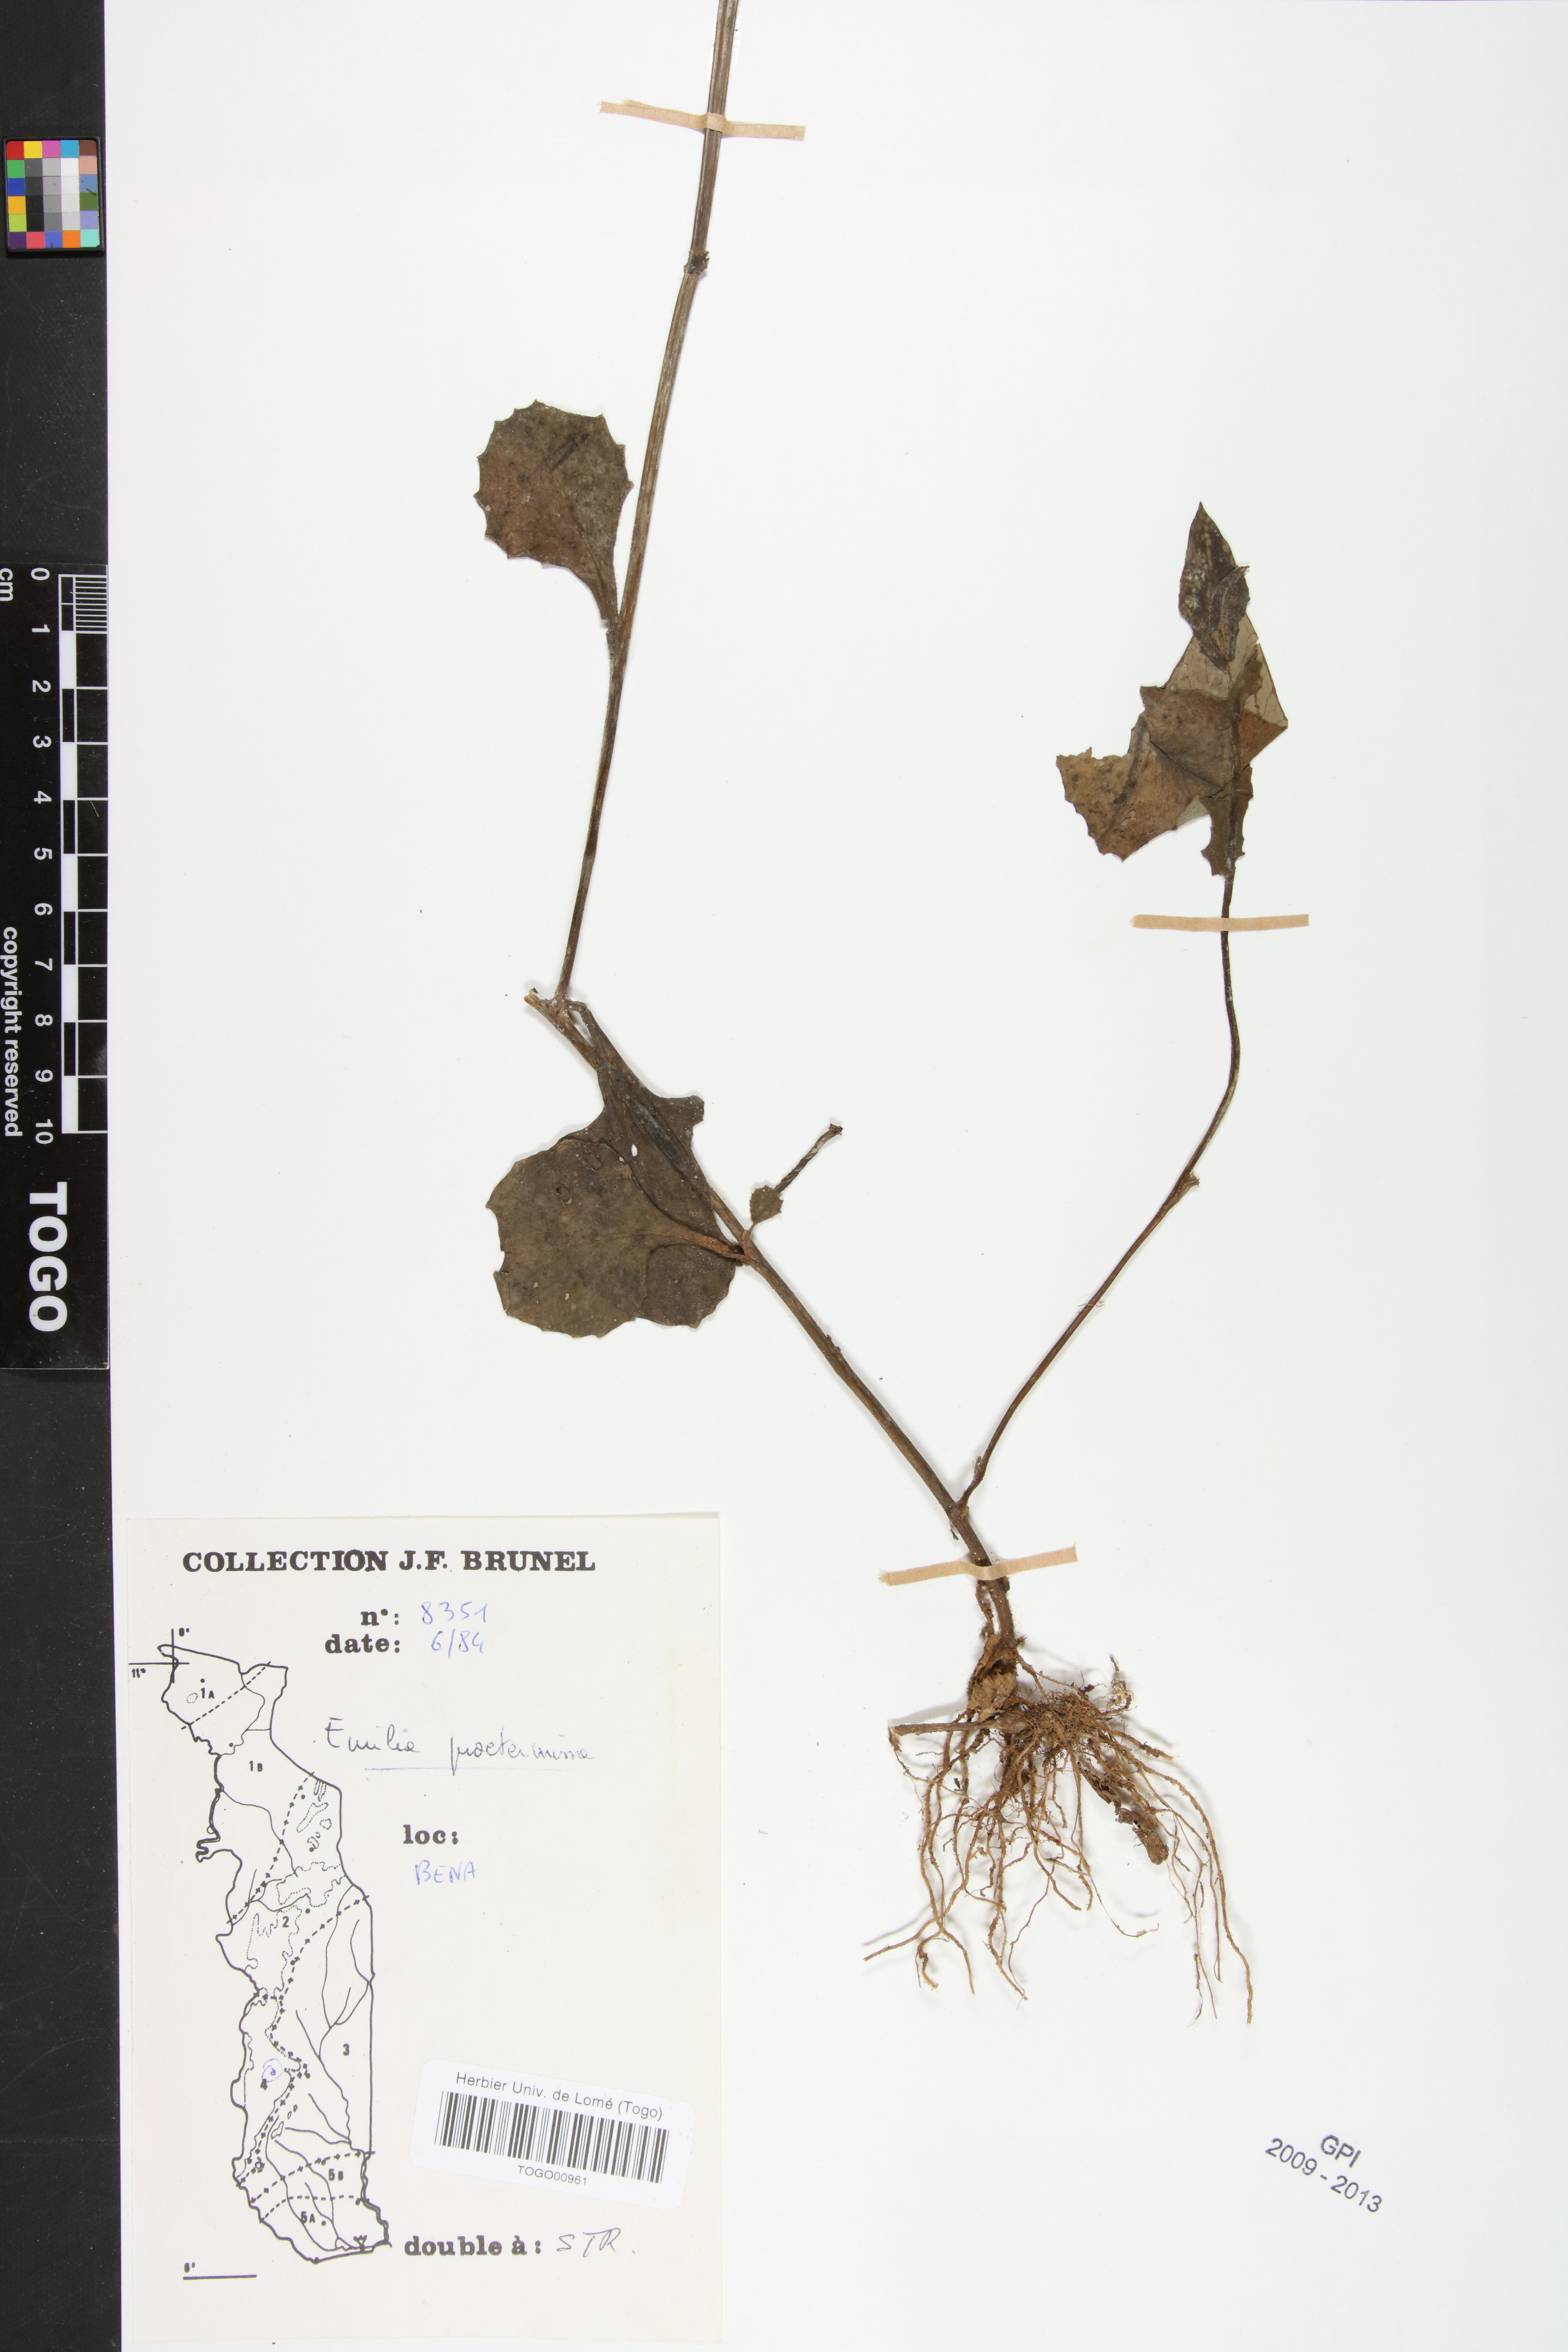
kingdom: Plantae
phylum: Tracheophyta
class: Magnoliopsida
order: Asterales
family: Asteraceae
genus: Emilia
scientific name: Emilia praetermissa
